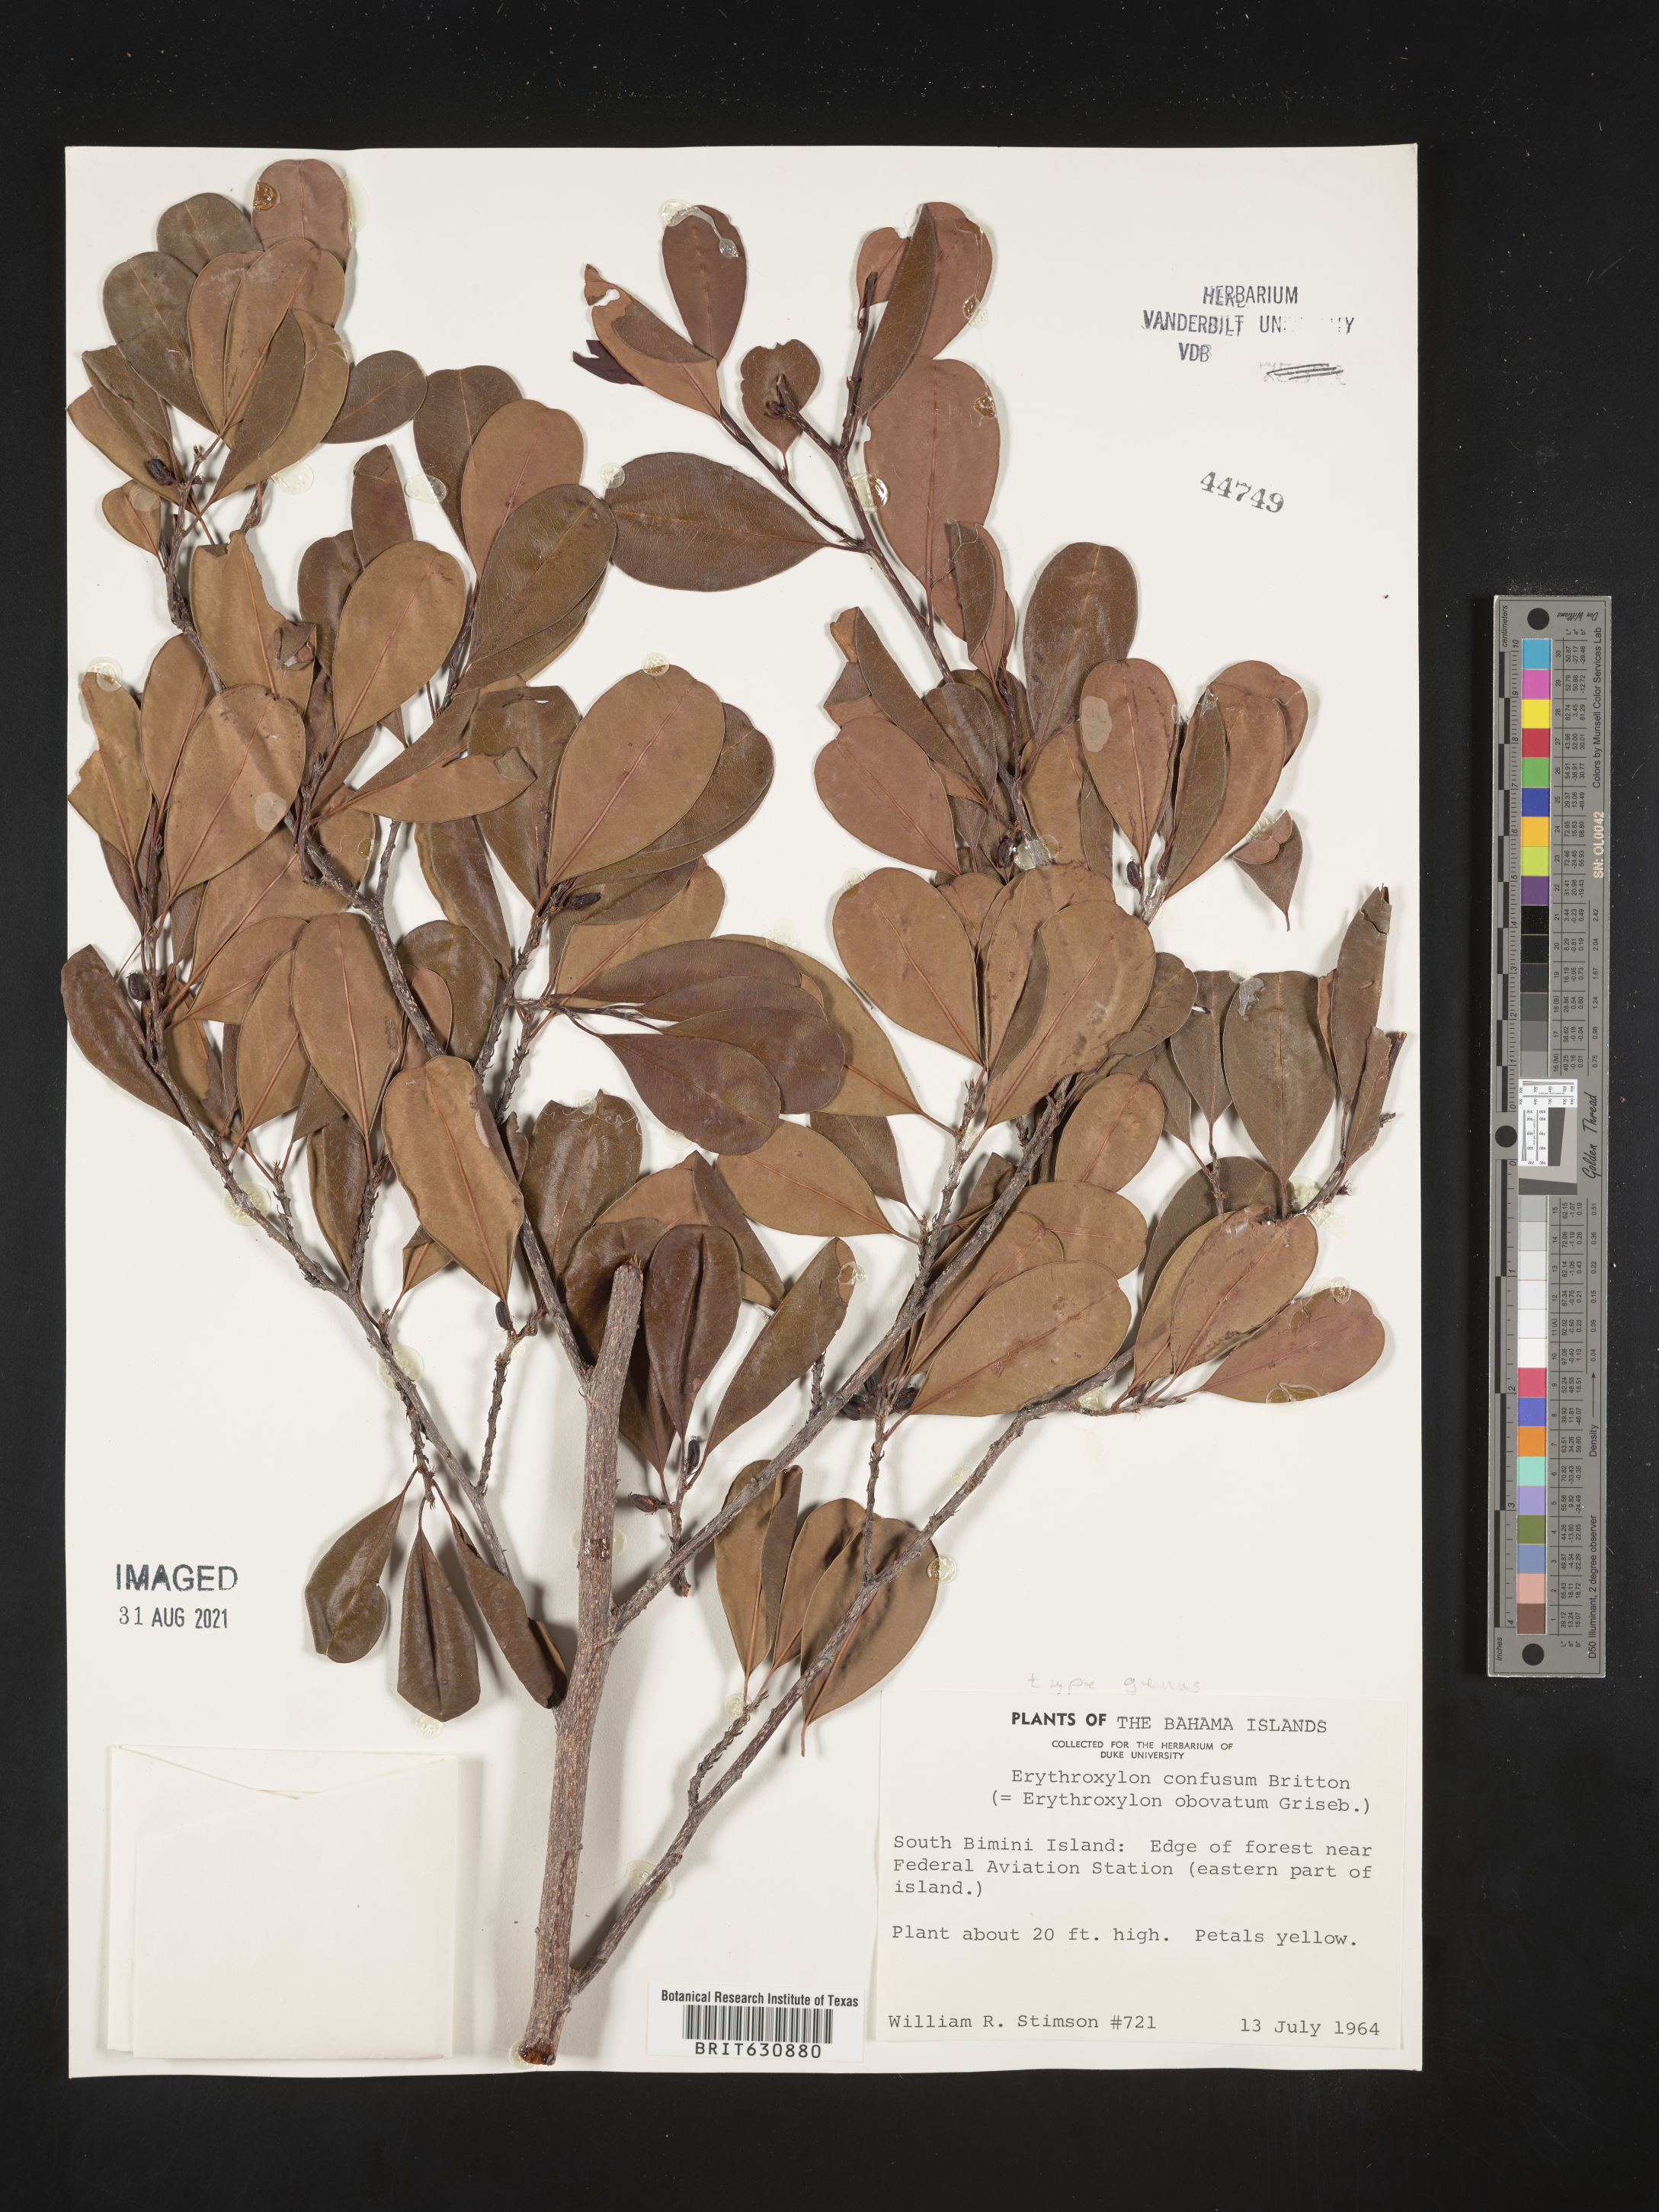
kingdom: Plantae
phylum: Tracheophyta
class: Magnoliopsida
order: Malpighiales
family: Erythroxylaceae
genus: Erythroxylum
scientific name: Erythroxylum
